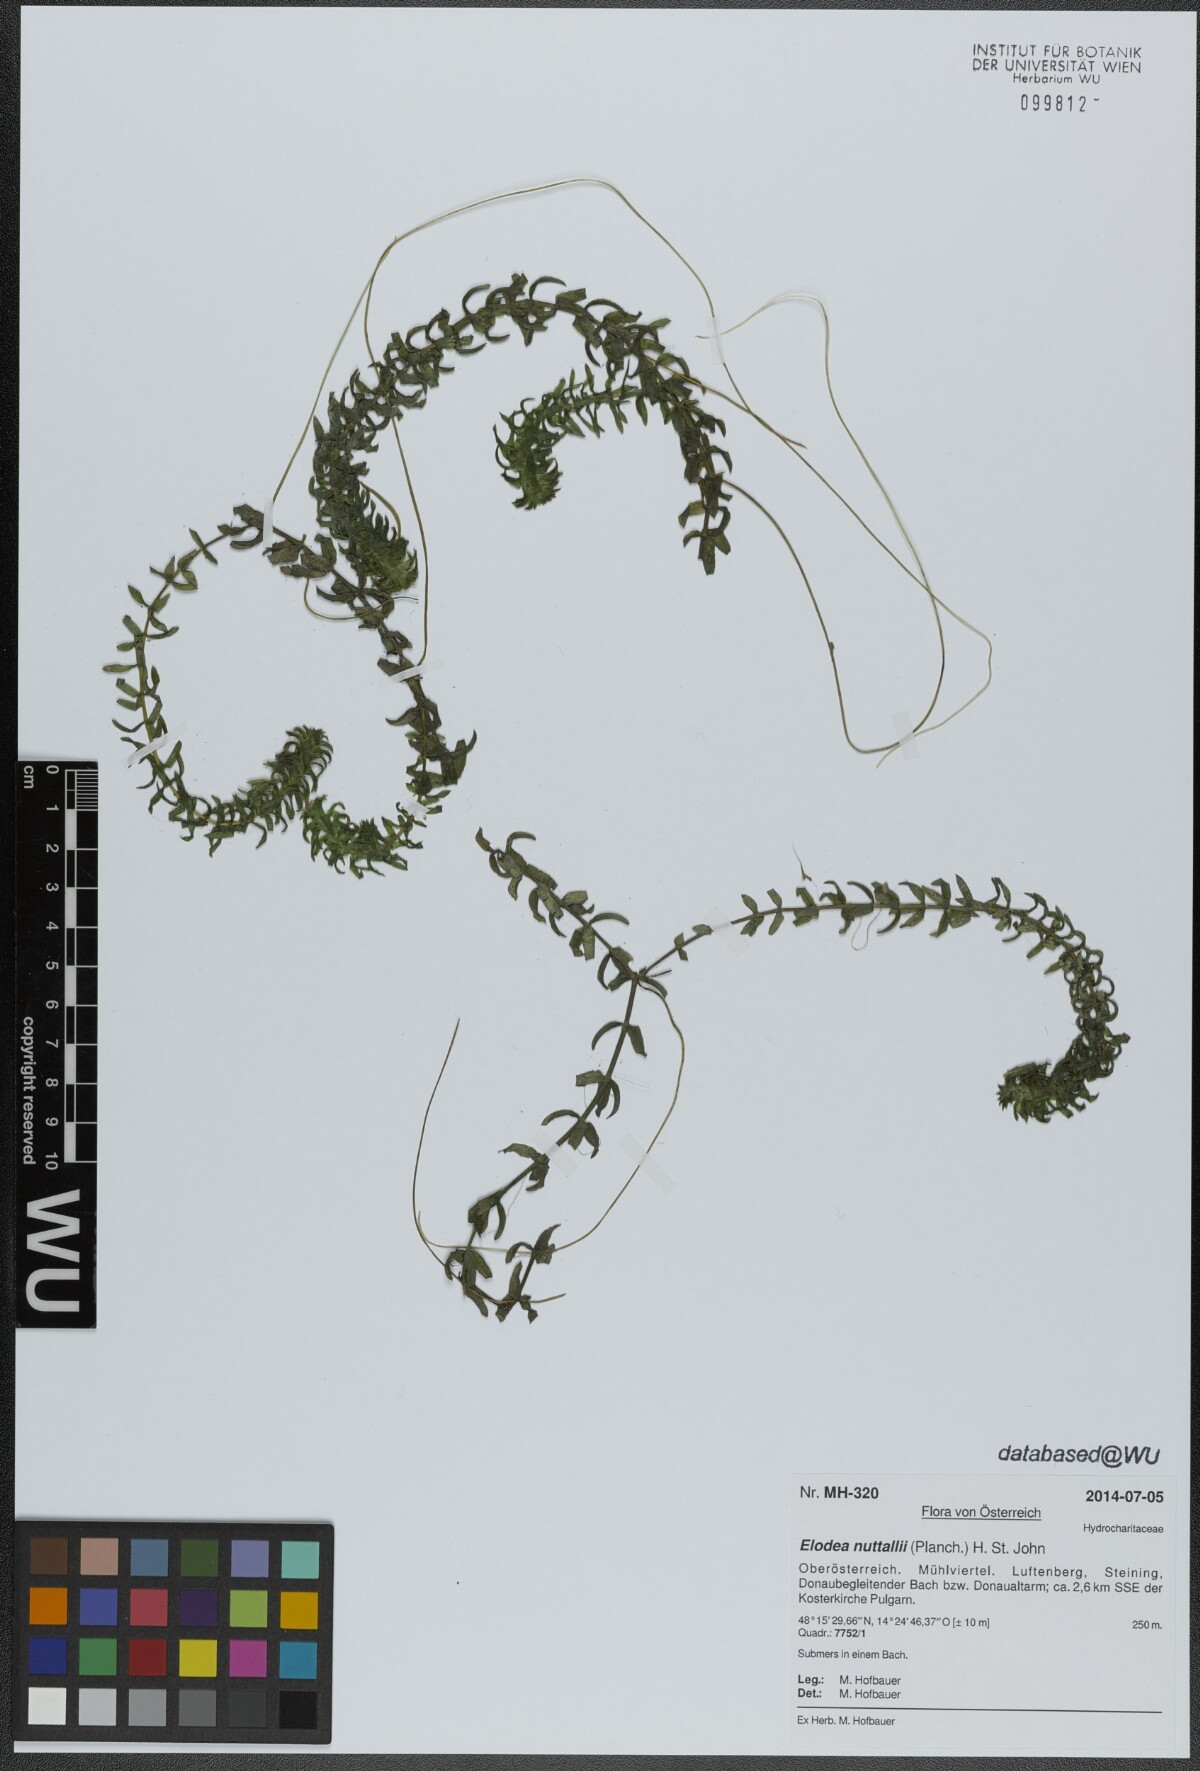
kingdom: Plantae
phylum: Tracheophyta
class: Liliopsida
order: Alismatales
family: Hydrocharitaceae
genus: Elodea
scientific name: Elodea nuttallii
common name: Nuttall's waterweed
